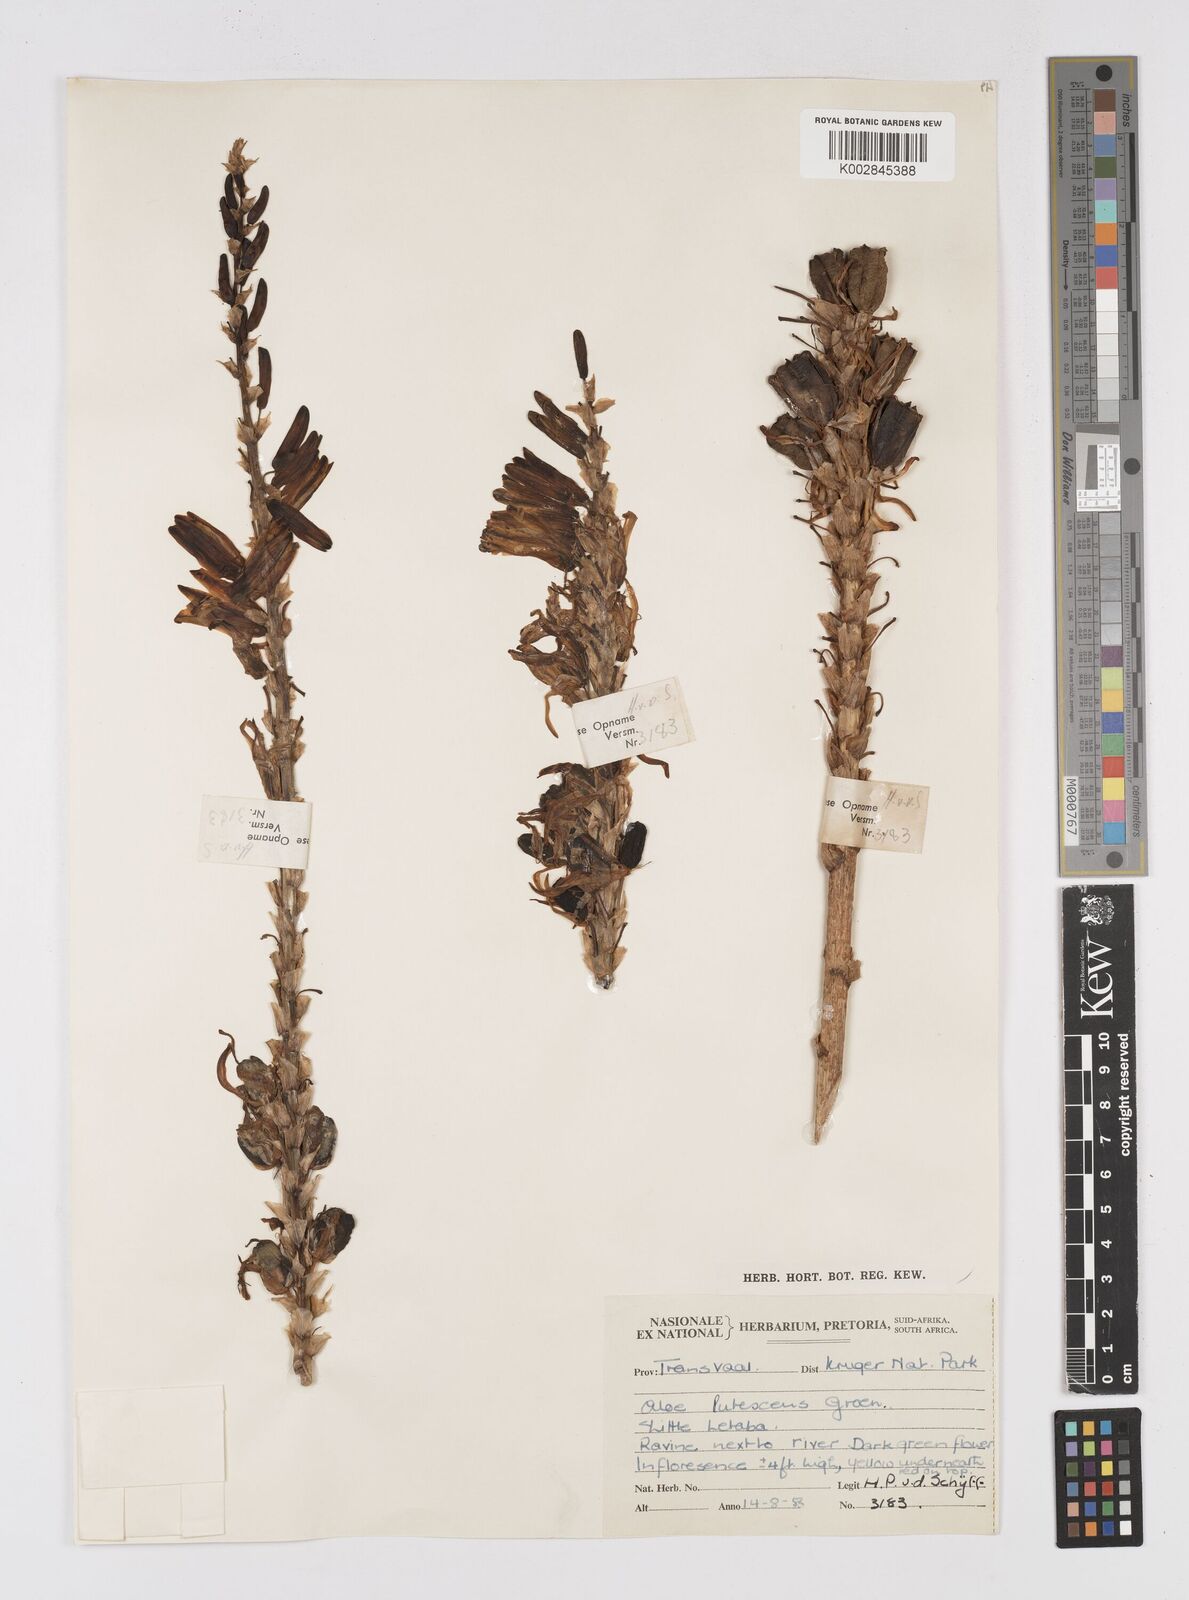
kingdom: Plantae
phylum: Tracheophyta
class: Liliopsida
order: Asparagales
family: Asphodelaceae
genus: Aloe
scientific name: Aloe lutescens
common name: Malapati aloe
